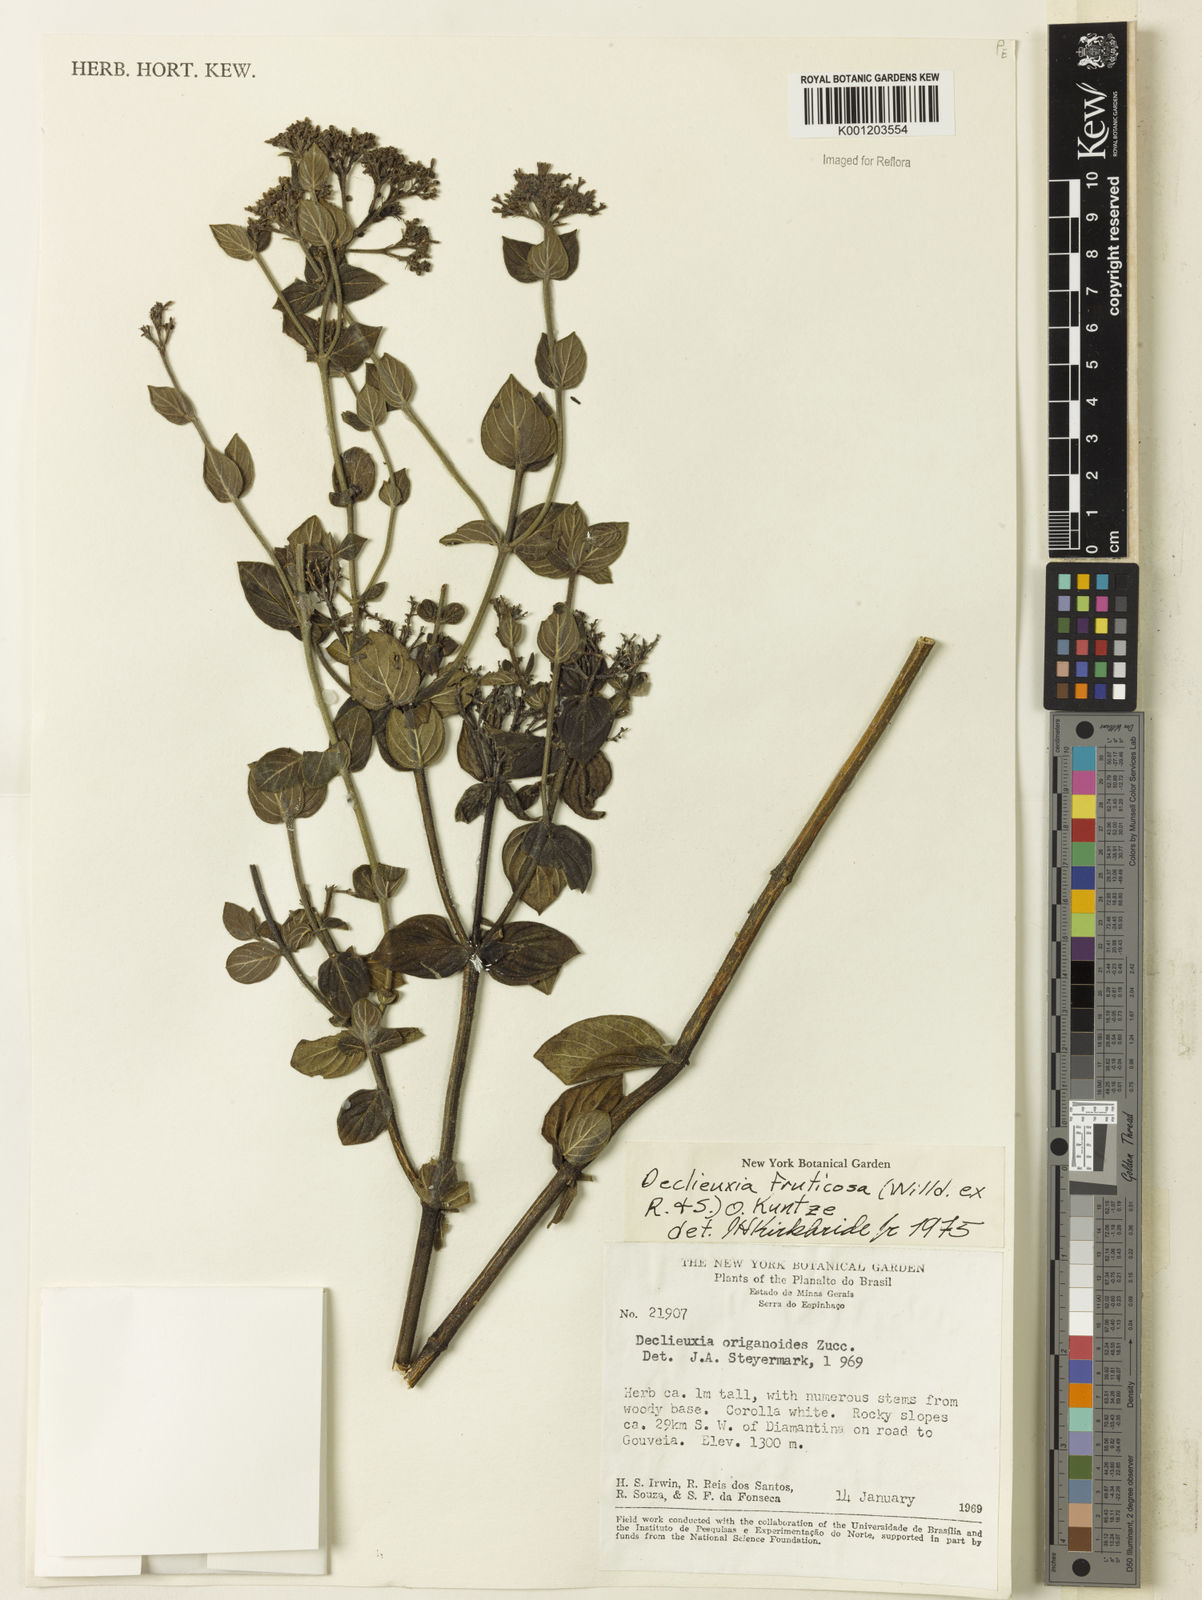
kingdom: Plantae
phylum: Tracheophyta
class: Magnoliopsida
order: Gentianales
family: Rubiaceae
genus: Declieuxia
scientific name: Declieuxia fruticosa
